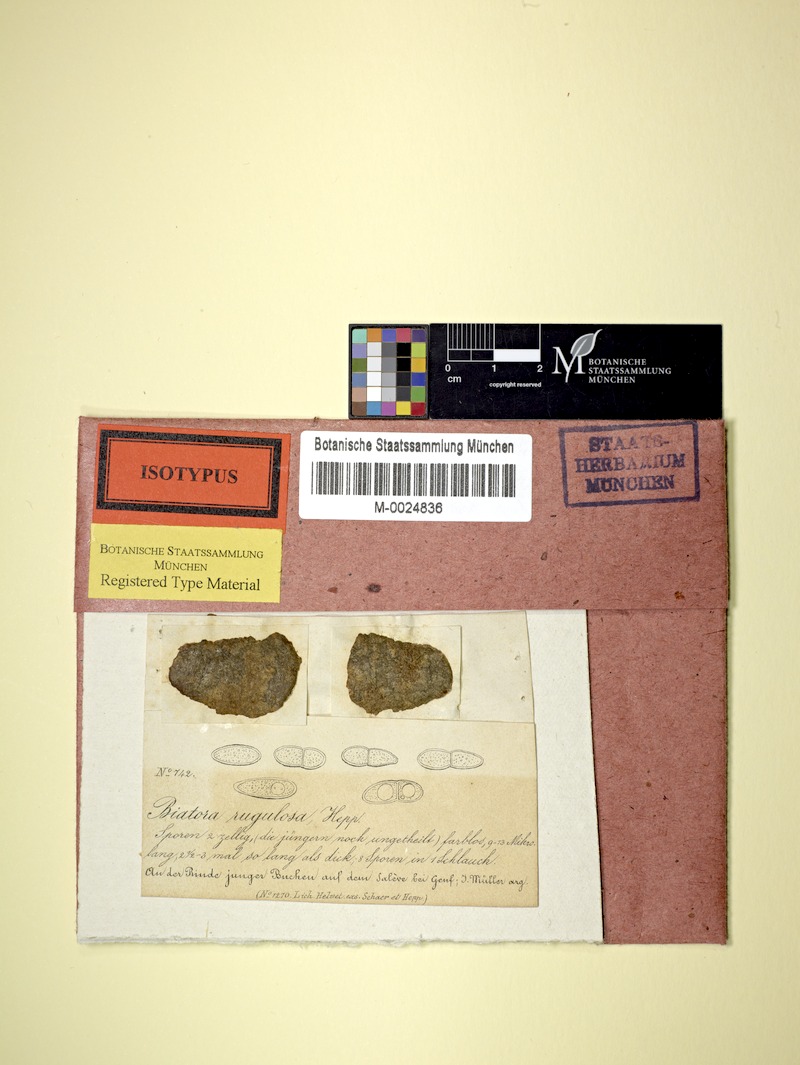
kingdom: Fungi
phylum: Ascomycota
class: Lecanoromycetes
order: Lecanorales
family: Catillariaceae
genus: Catillaria
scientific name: Catillaria rugulosa
